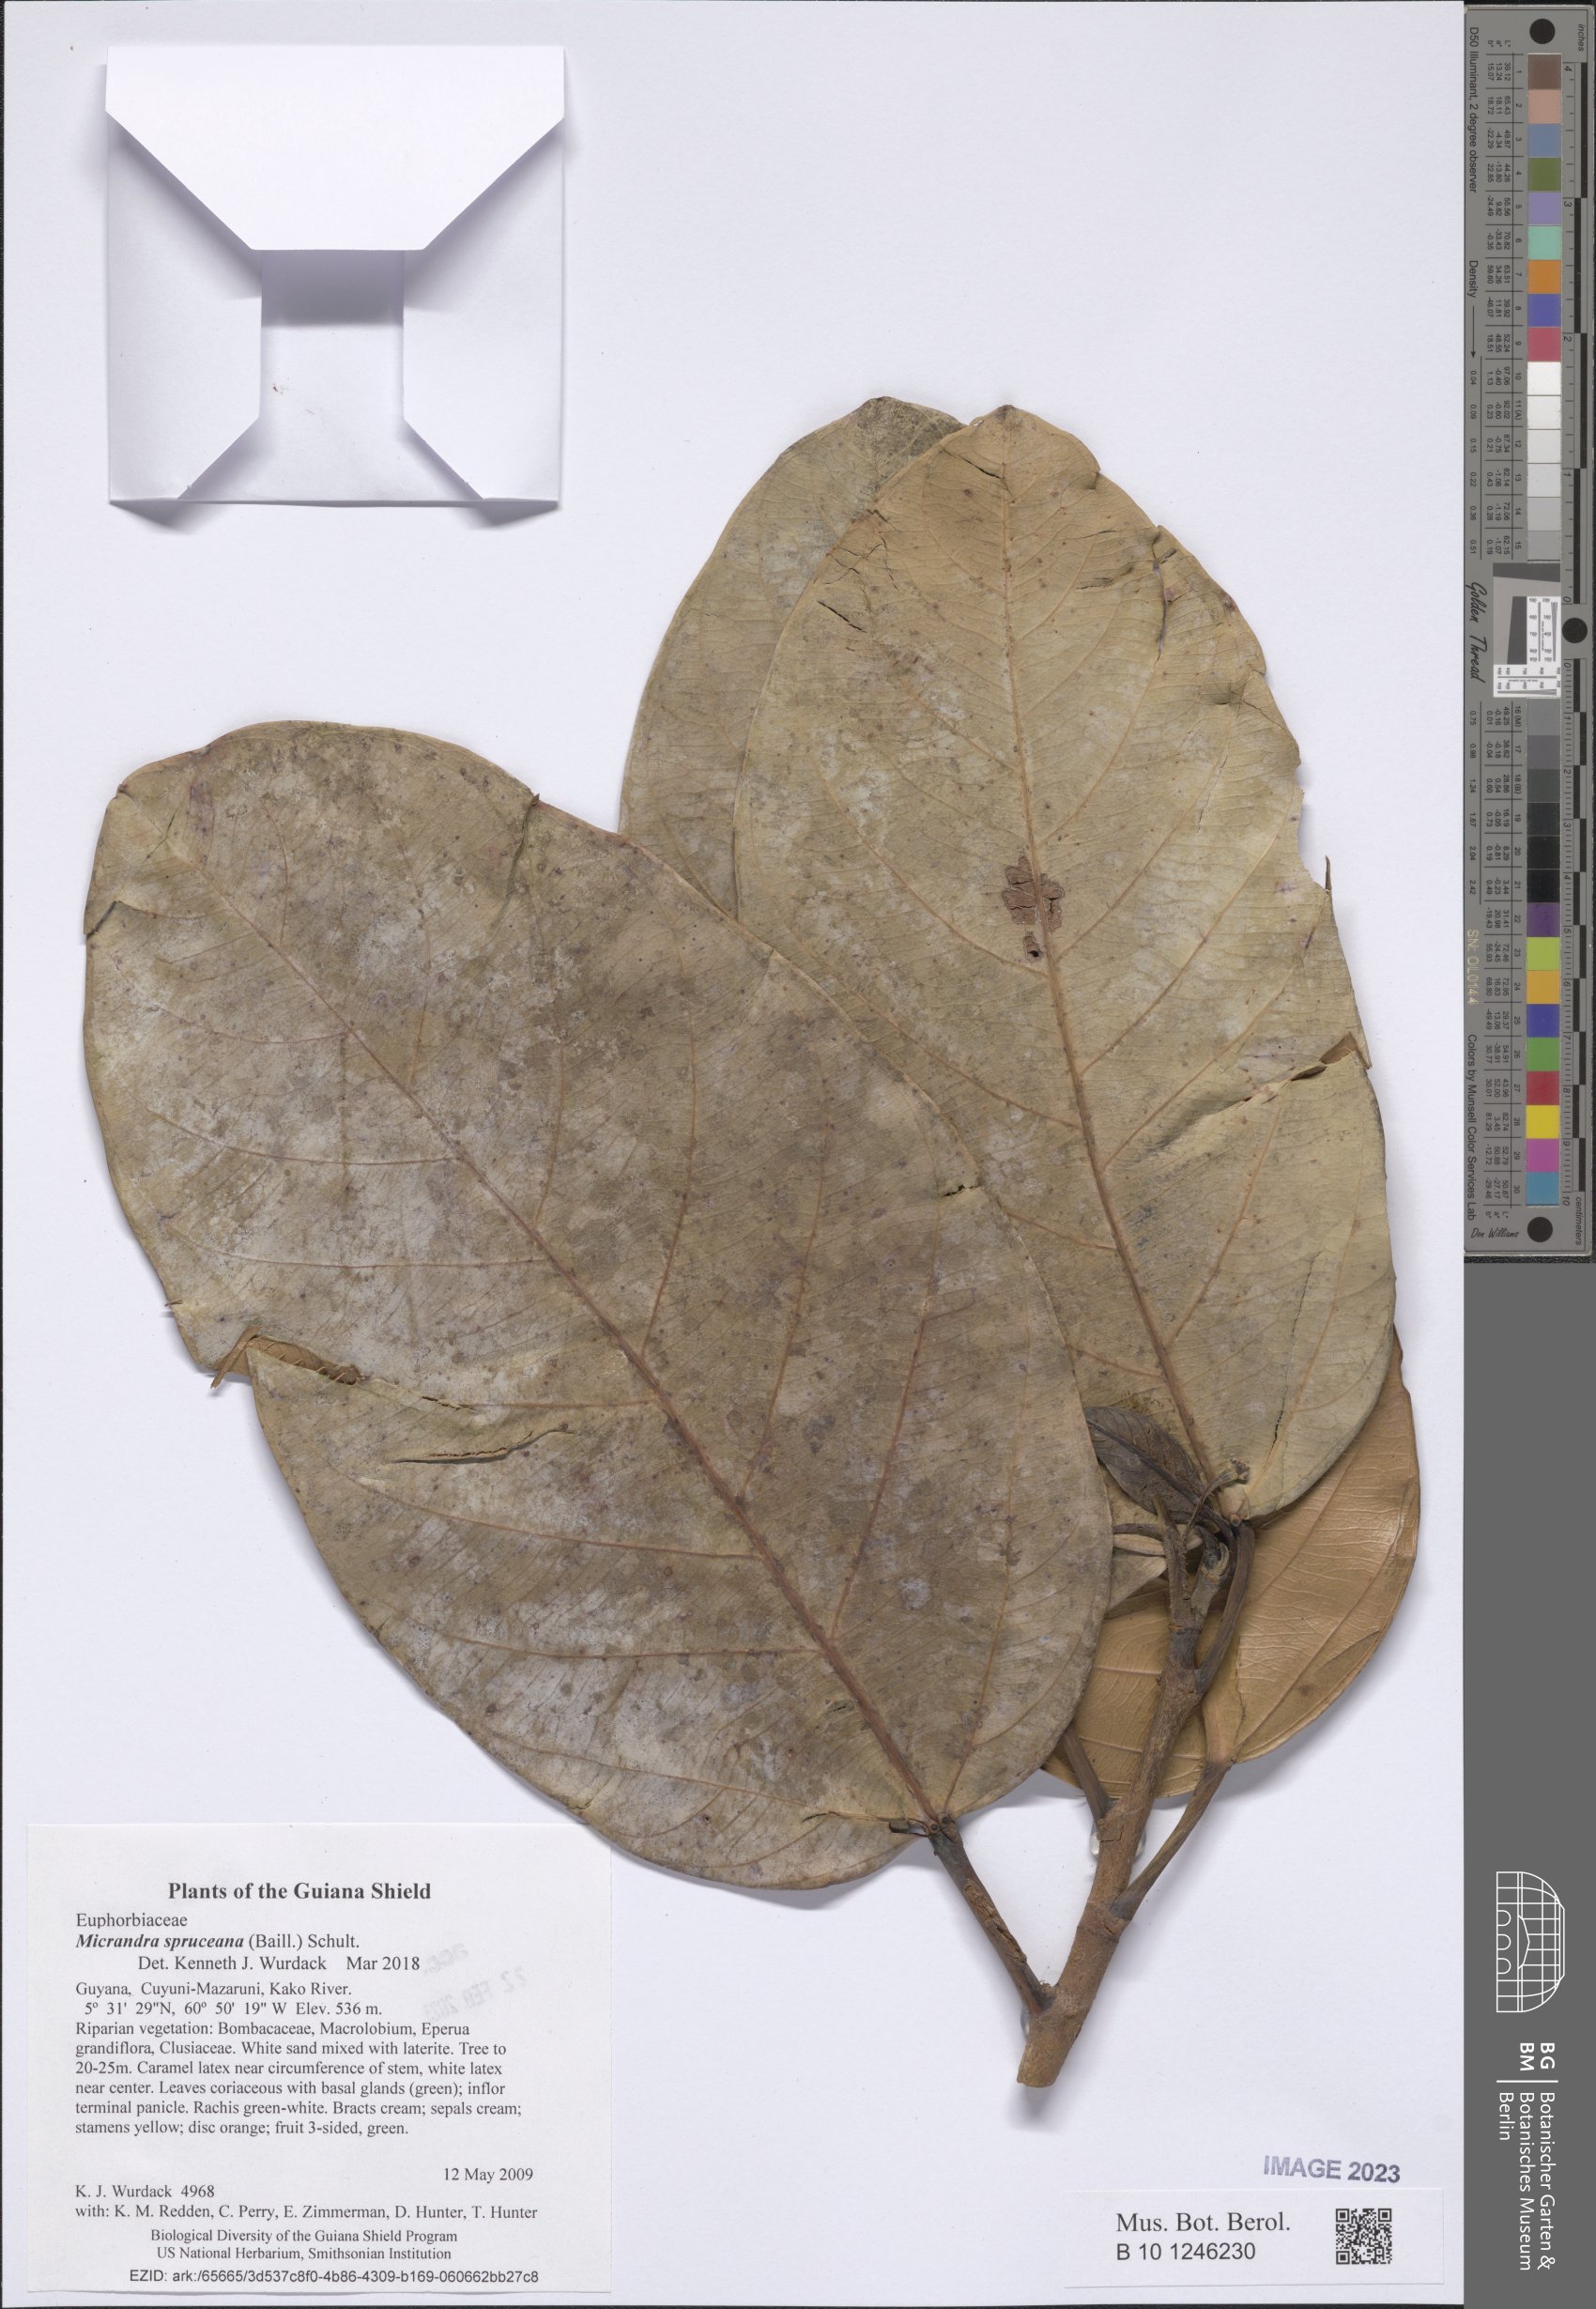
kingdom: Plantae
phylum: Tracheophyta
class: Magnoliopsida
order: Malpighiales
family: Euphorbiaceae
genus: Micrandra
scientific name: Micrandra spruceana
